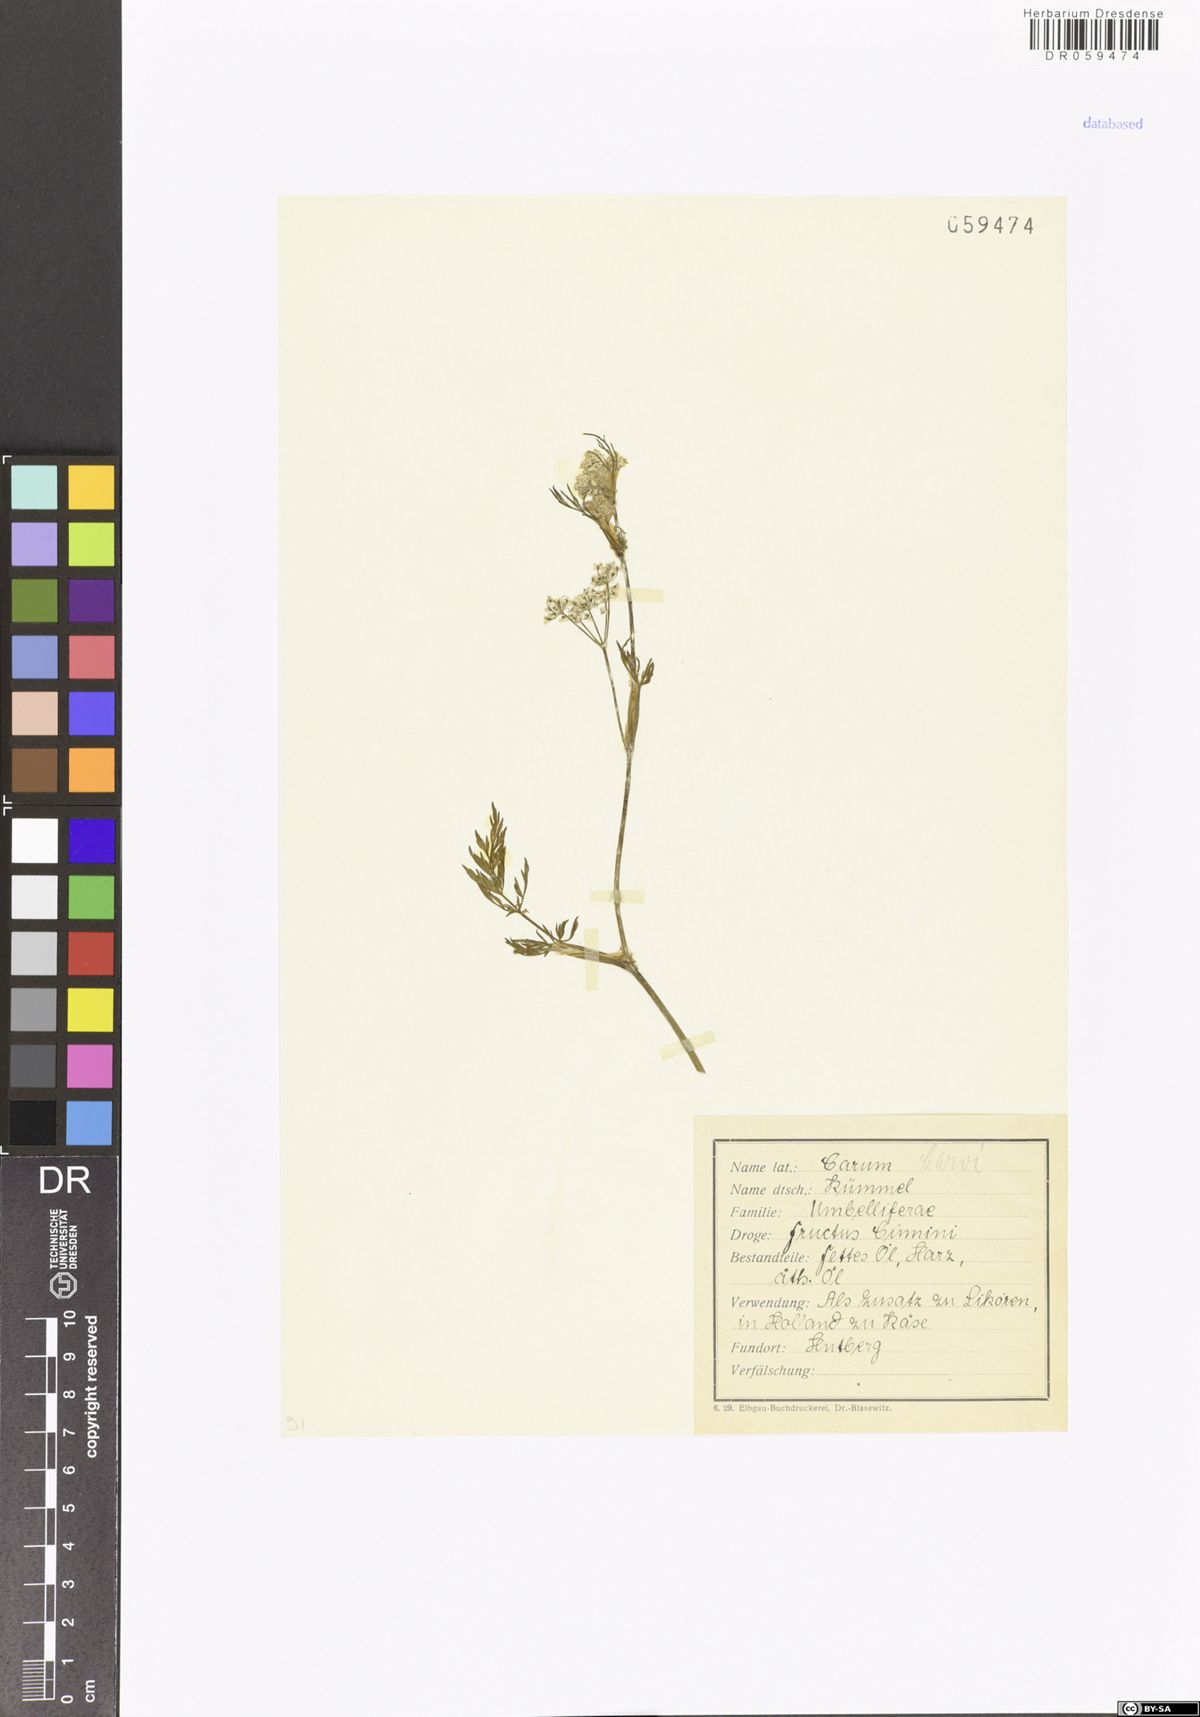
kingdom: Plantae
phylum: Tracheophyta
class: Magnoliopsida
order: Apiales
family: Apiaceae
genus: Carum
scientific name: Carum carvi
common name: Caraway
